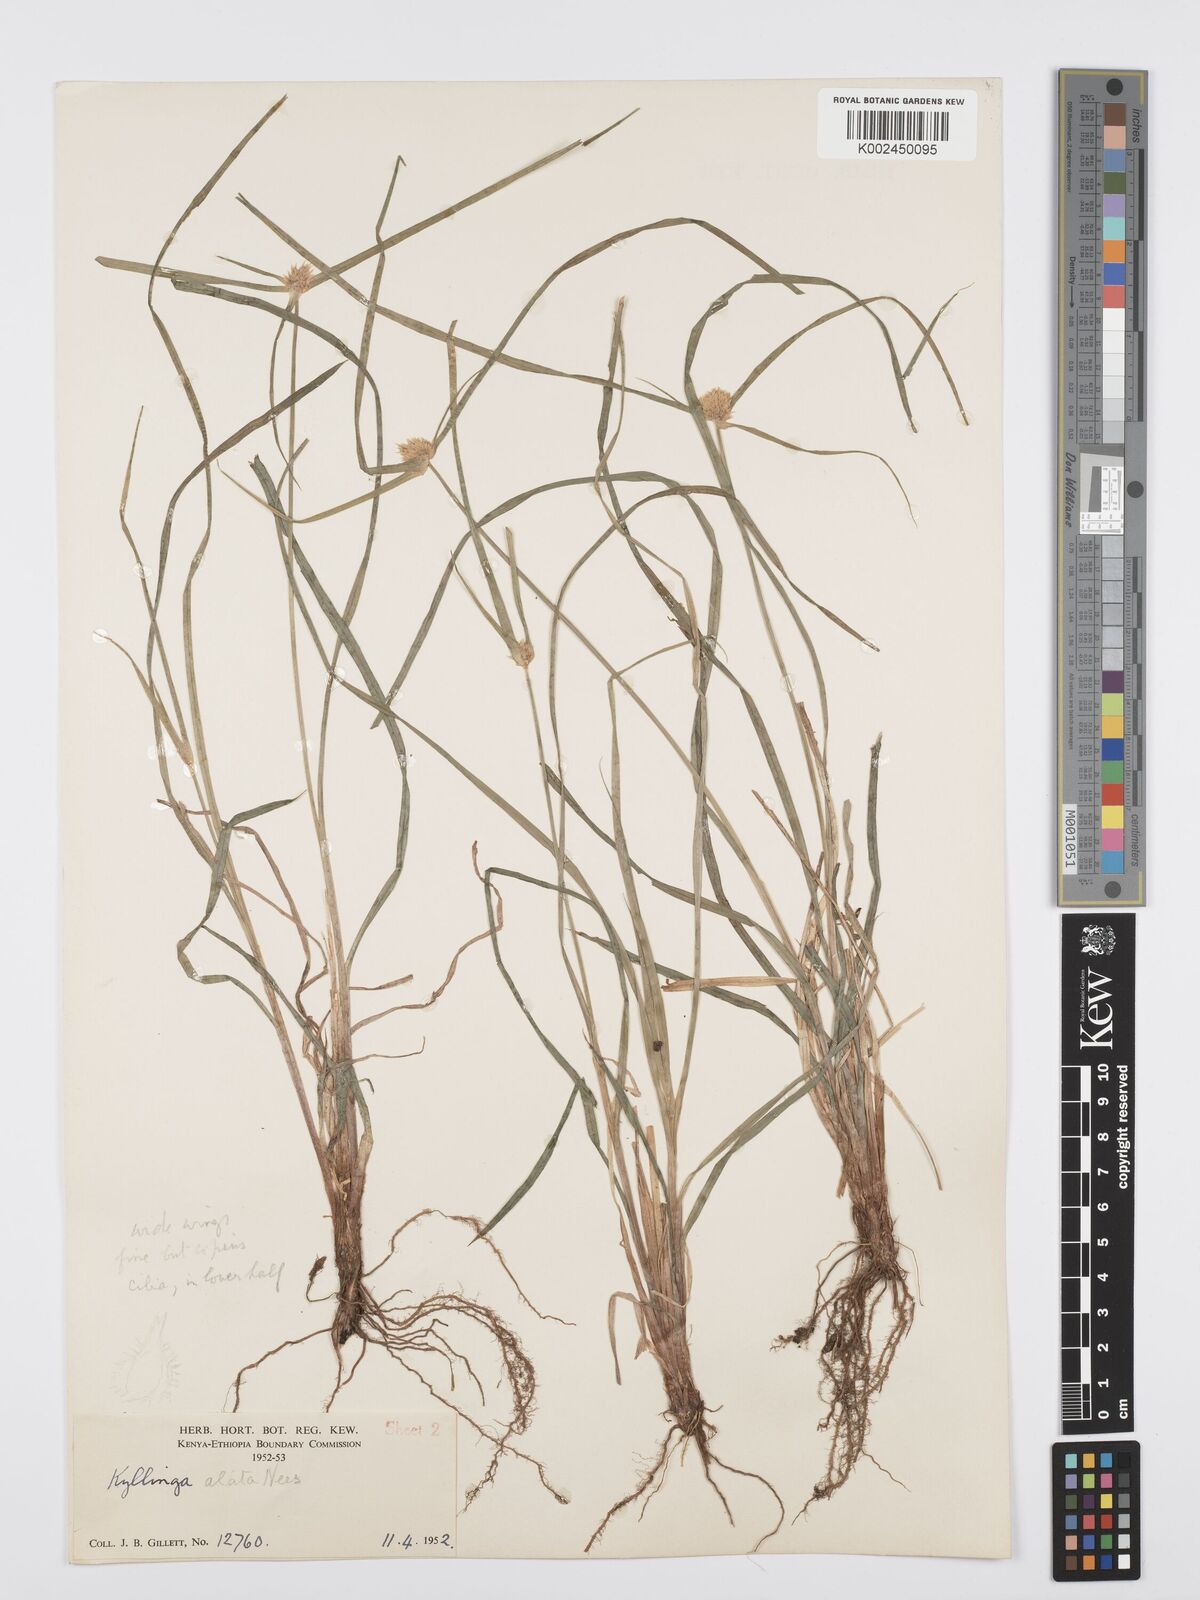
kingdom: Plantae
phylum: Tracheophyta
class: Liliopsida
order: Poales
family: Cyperaceae
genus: Cyperus
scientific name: Cyperus
